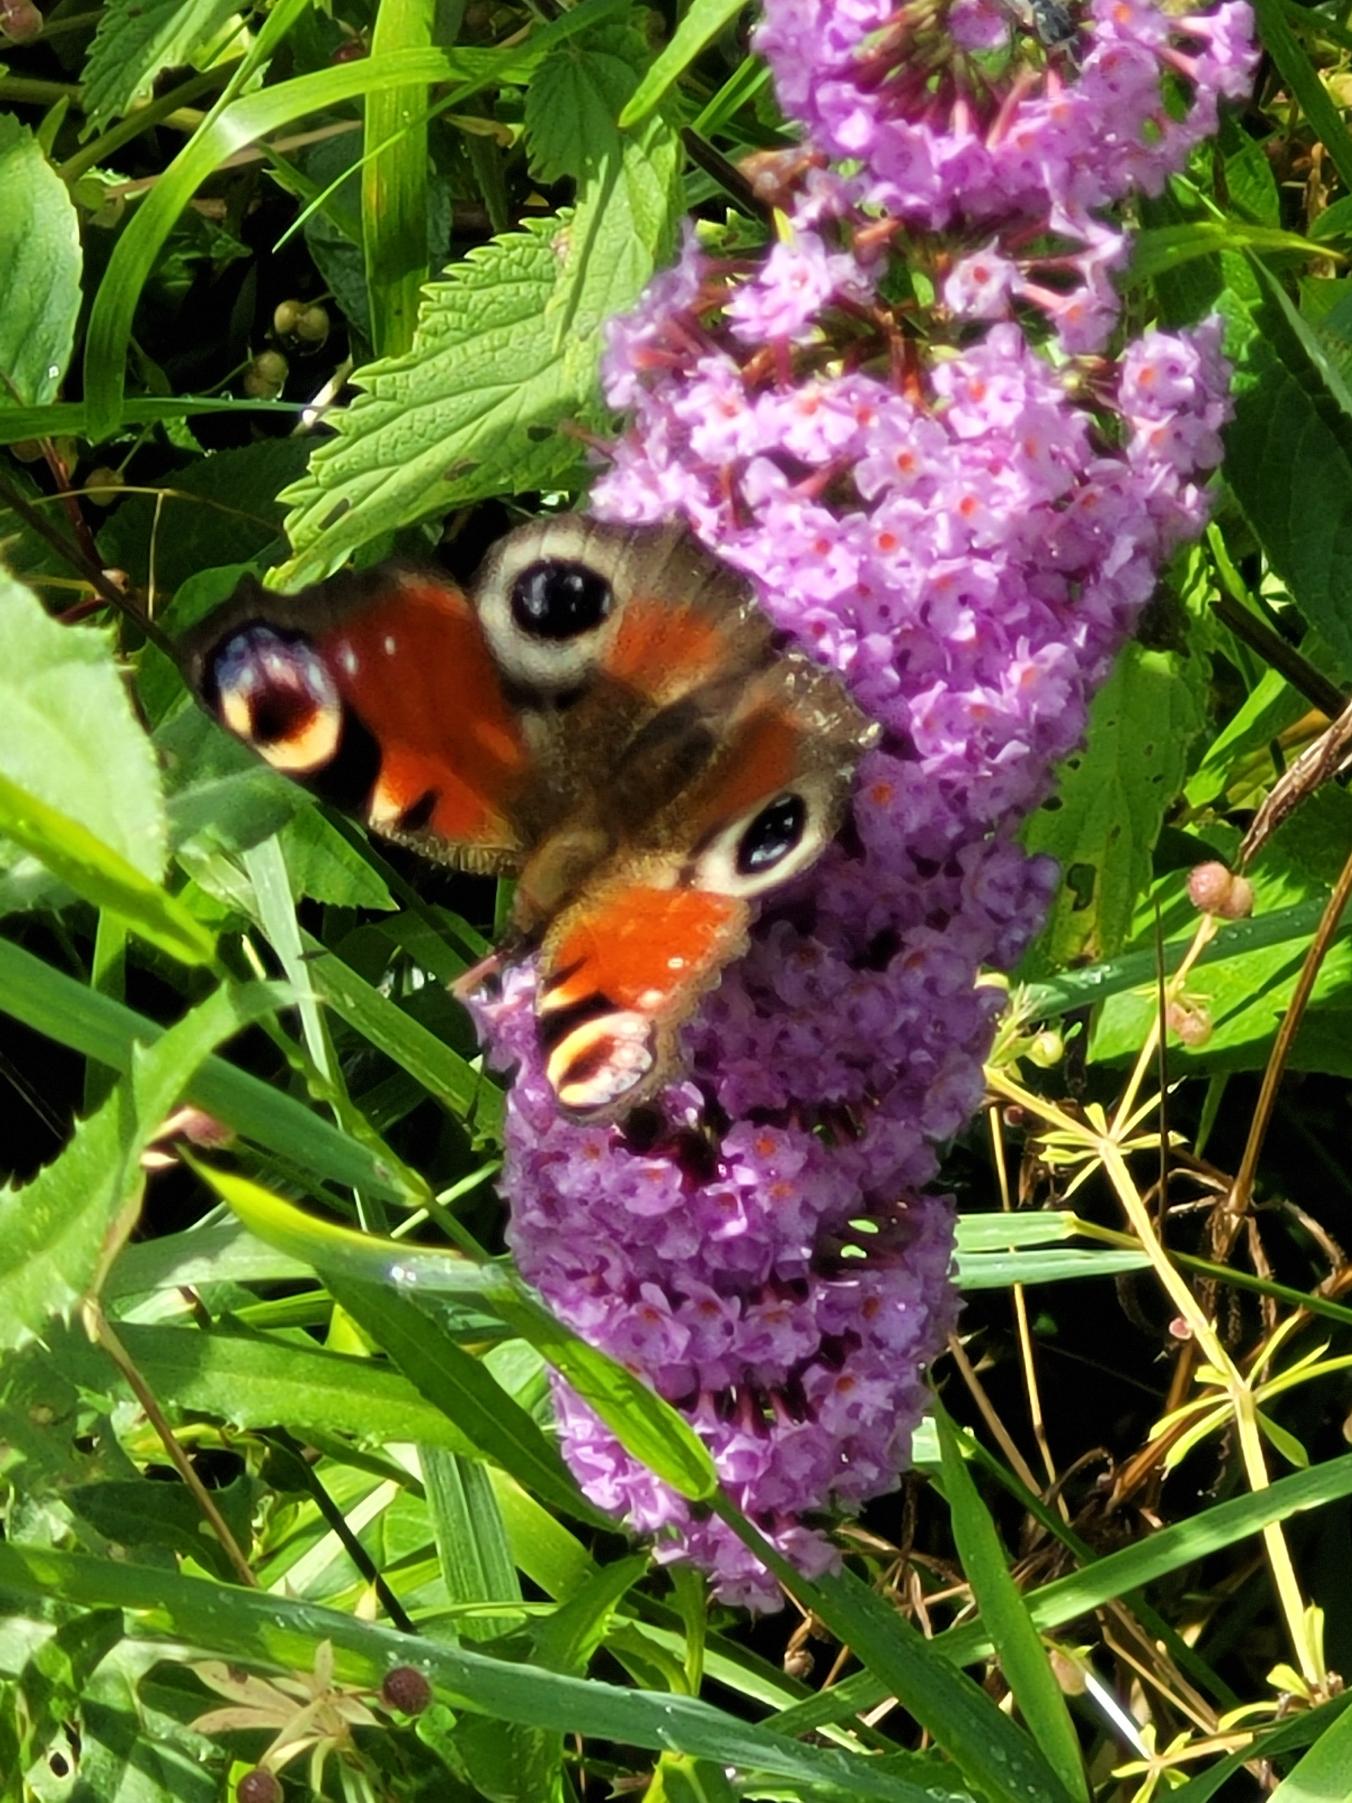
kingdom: Animalia
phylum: Arthropoda
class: Insecta
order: Lepidoptera
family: Nymphalidae
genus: Aglais
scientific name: Aglais io
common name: Dagpåfugleøje
